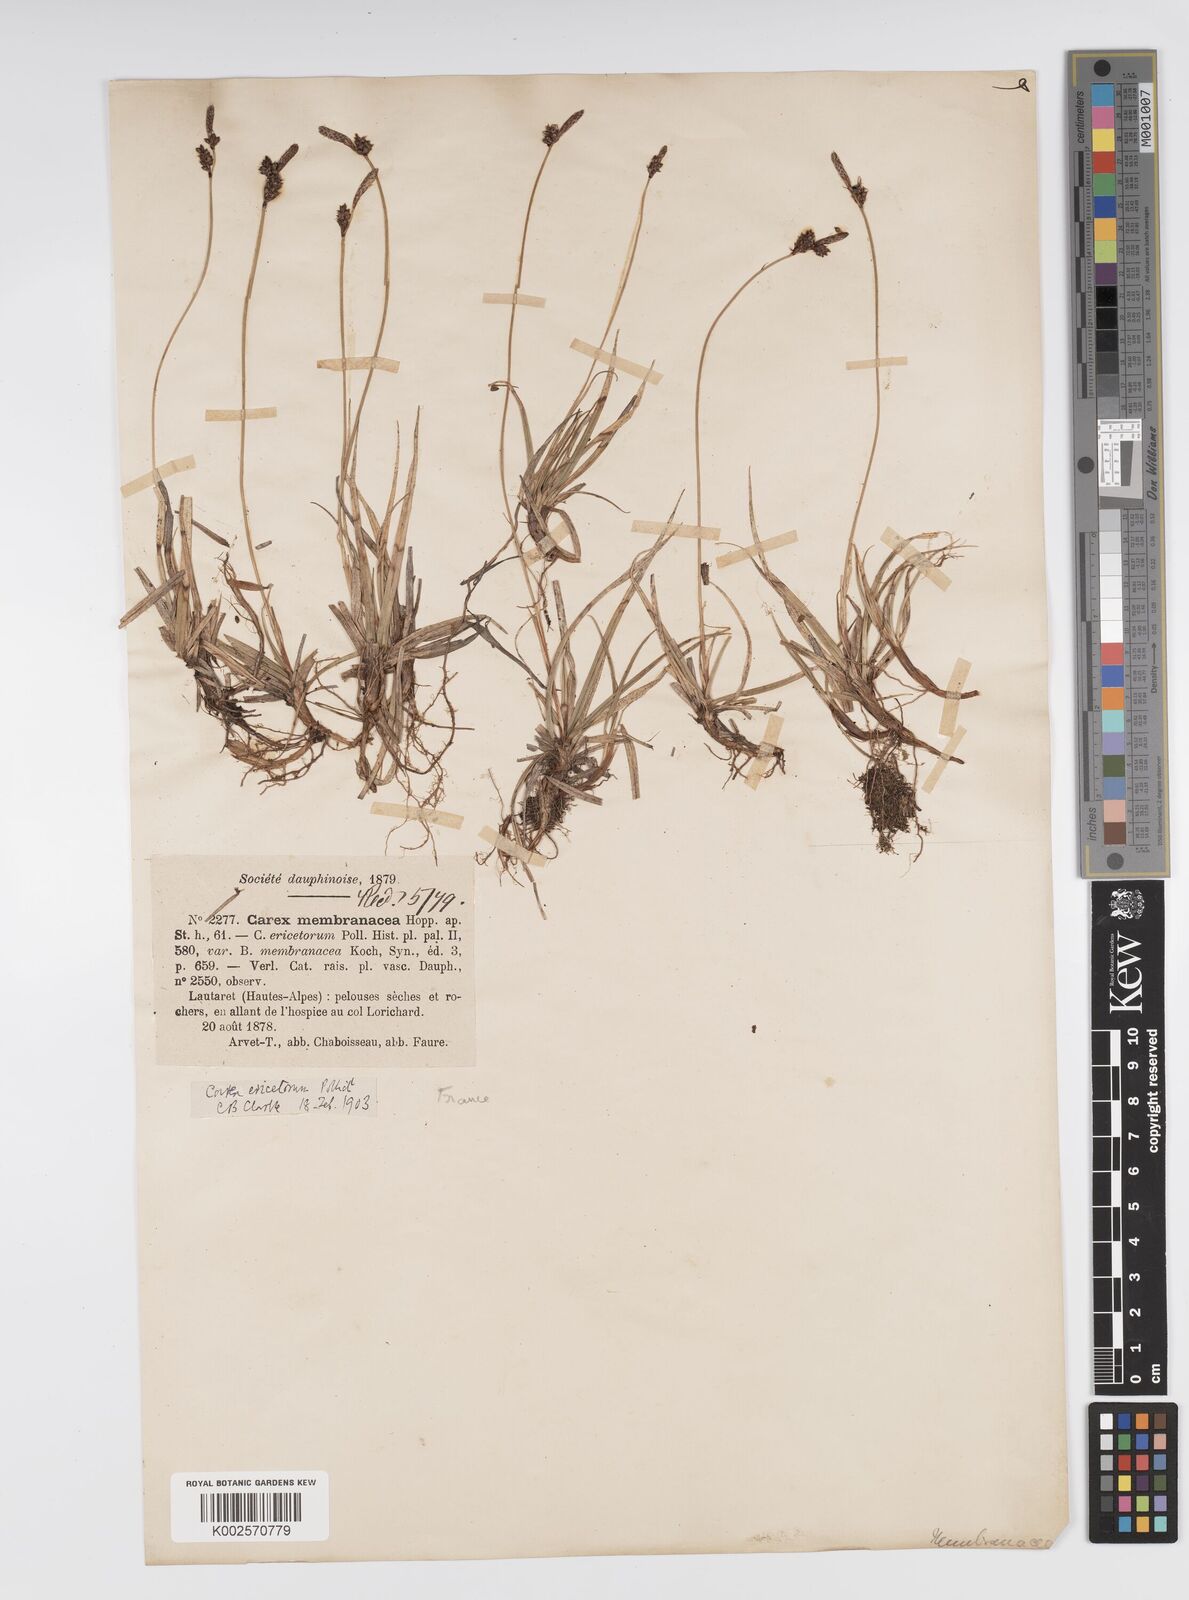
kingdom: Plantae
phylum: Tracheophyta
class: Liliopsida
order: Poales
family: Cyperaceae
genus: Carex
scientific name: Carex ericetorum
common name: Rare spring-sedge
